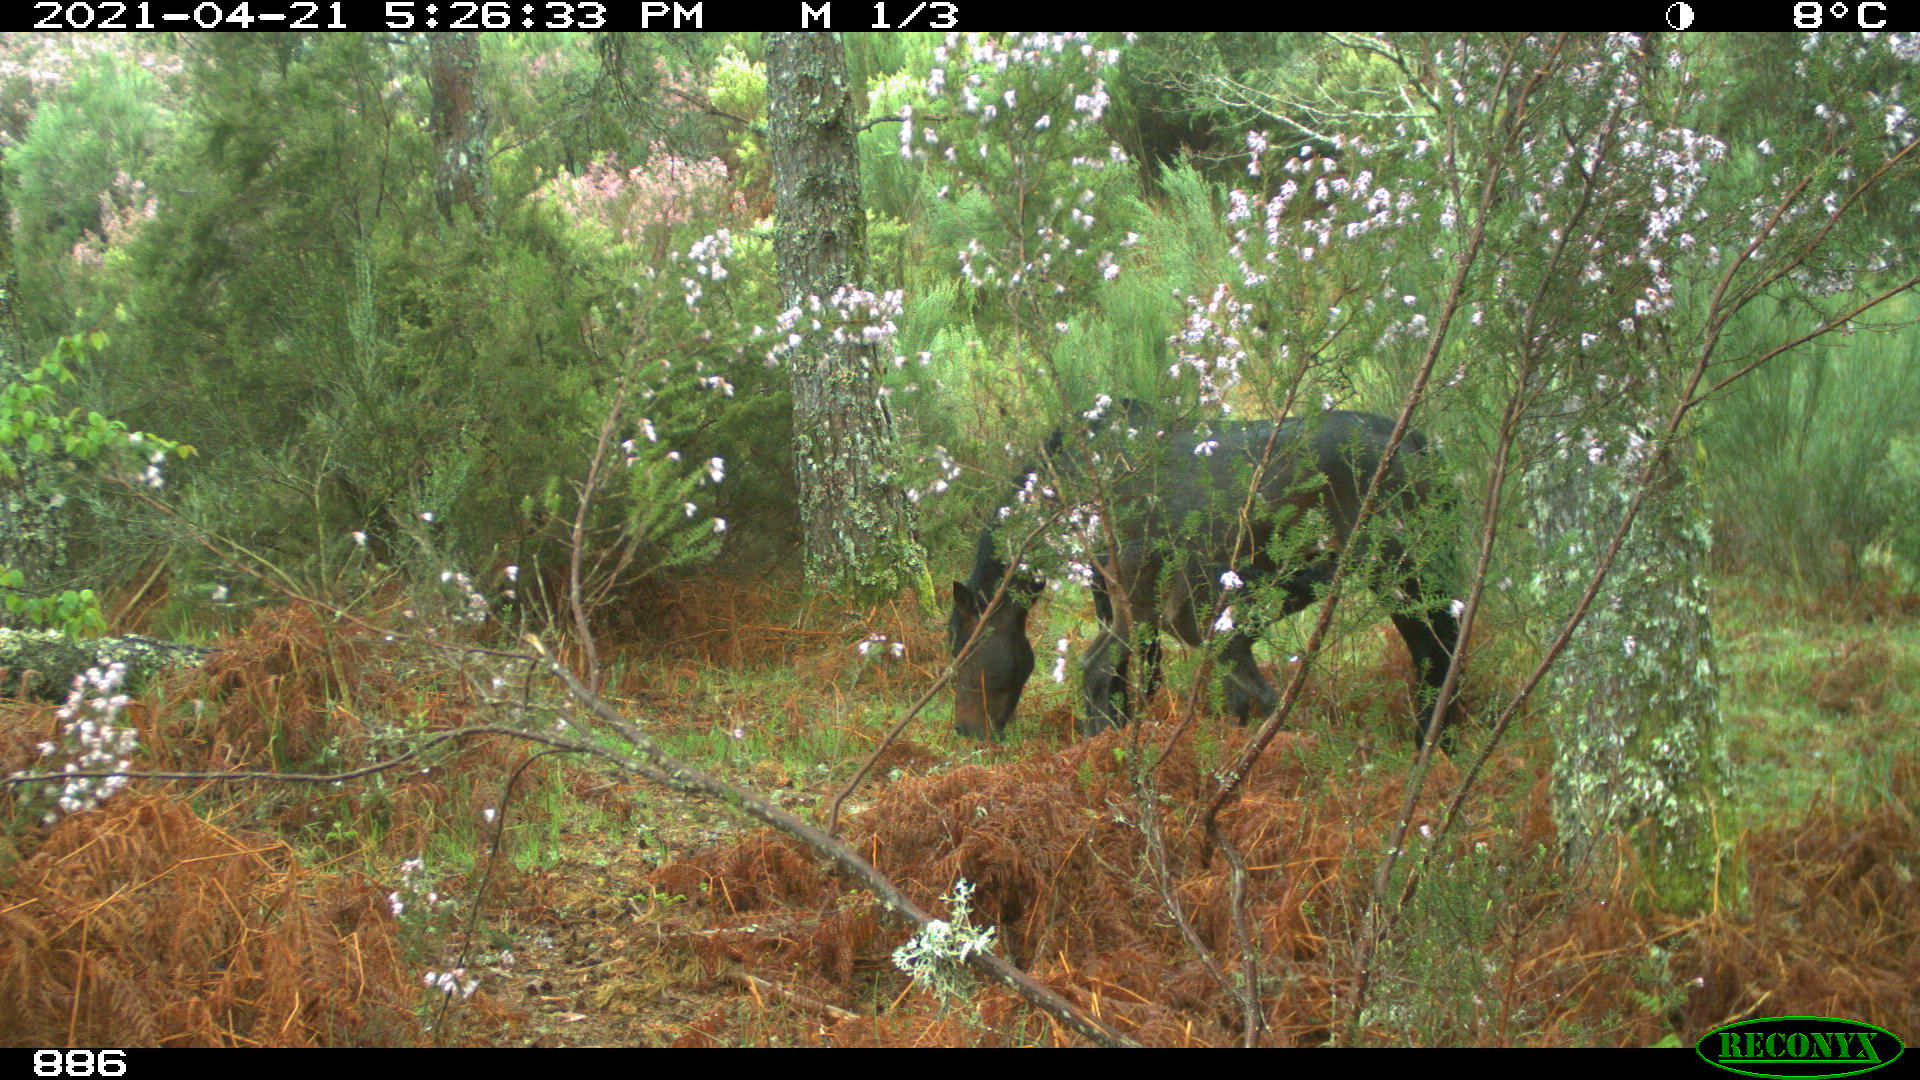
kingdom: Animalia
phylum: Chordata
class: Mammalia
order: Perissodactyla
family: Equidae
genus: Equus
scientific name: Equus caballus
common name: Horse
